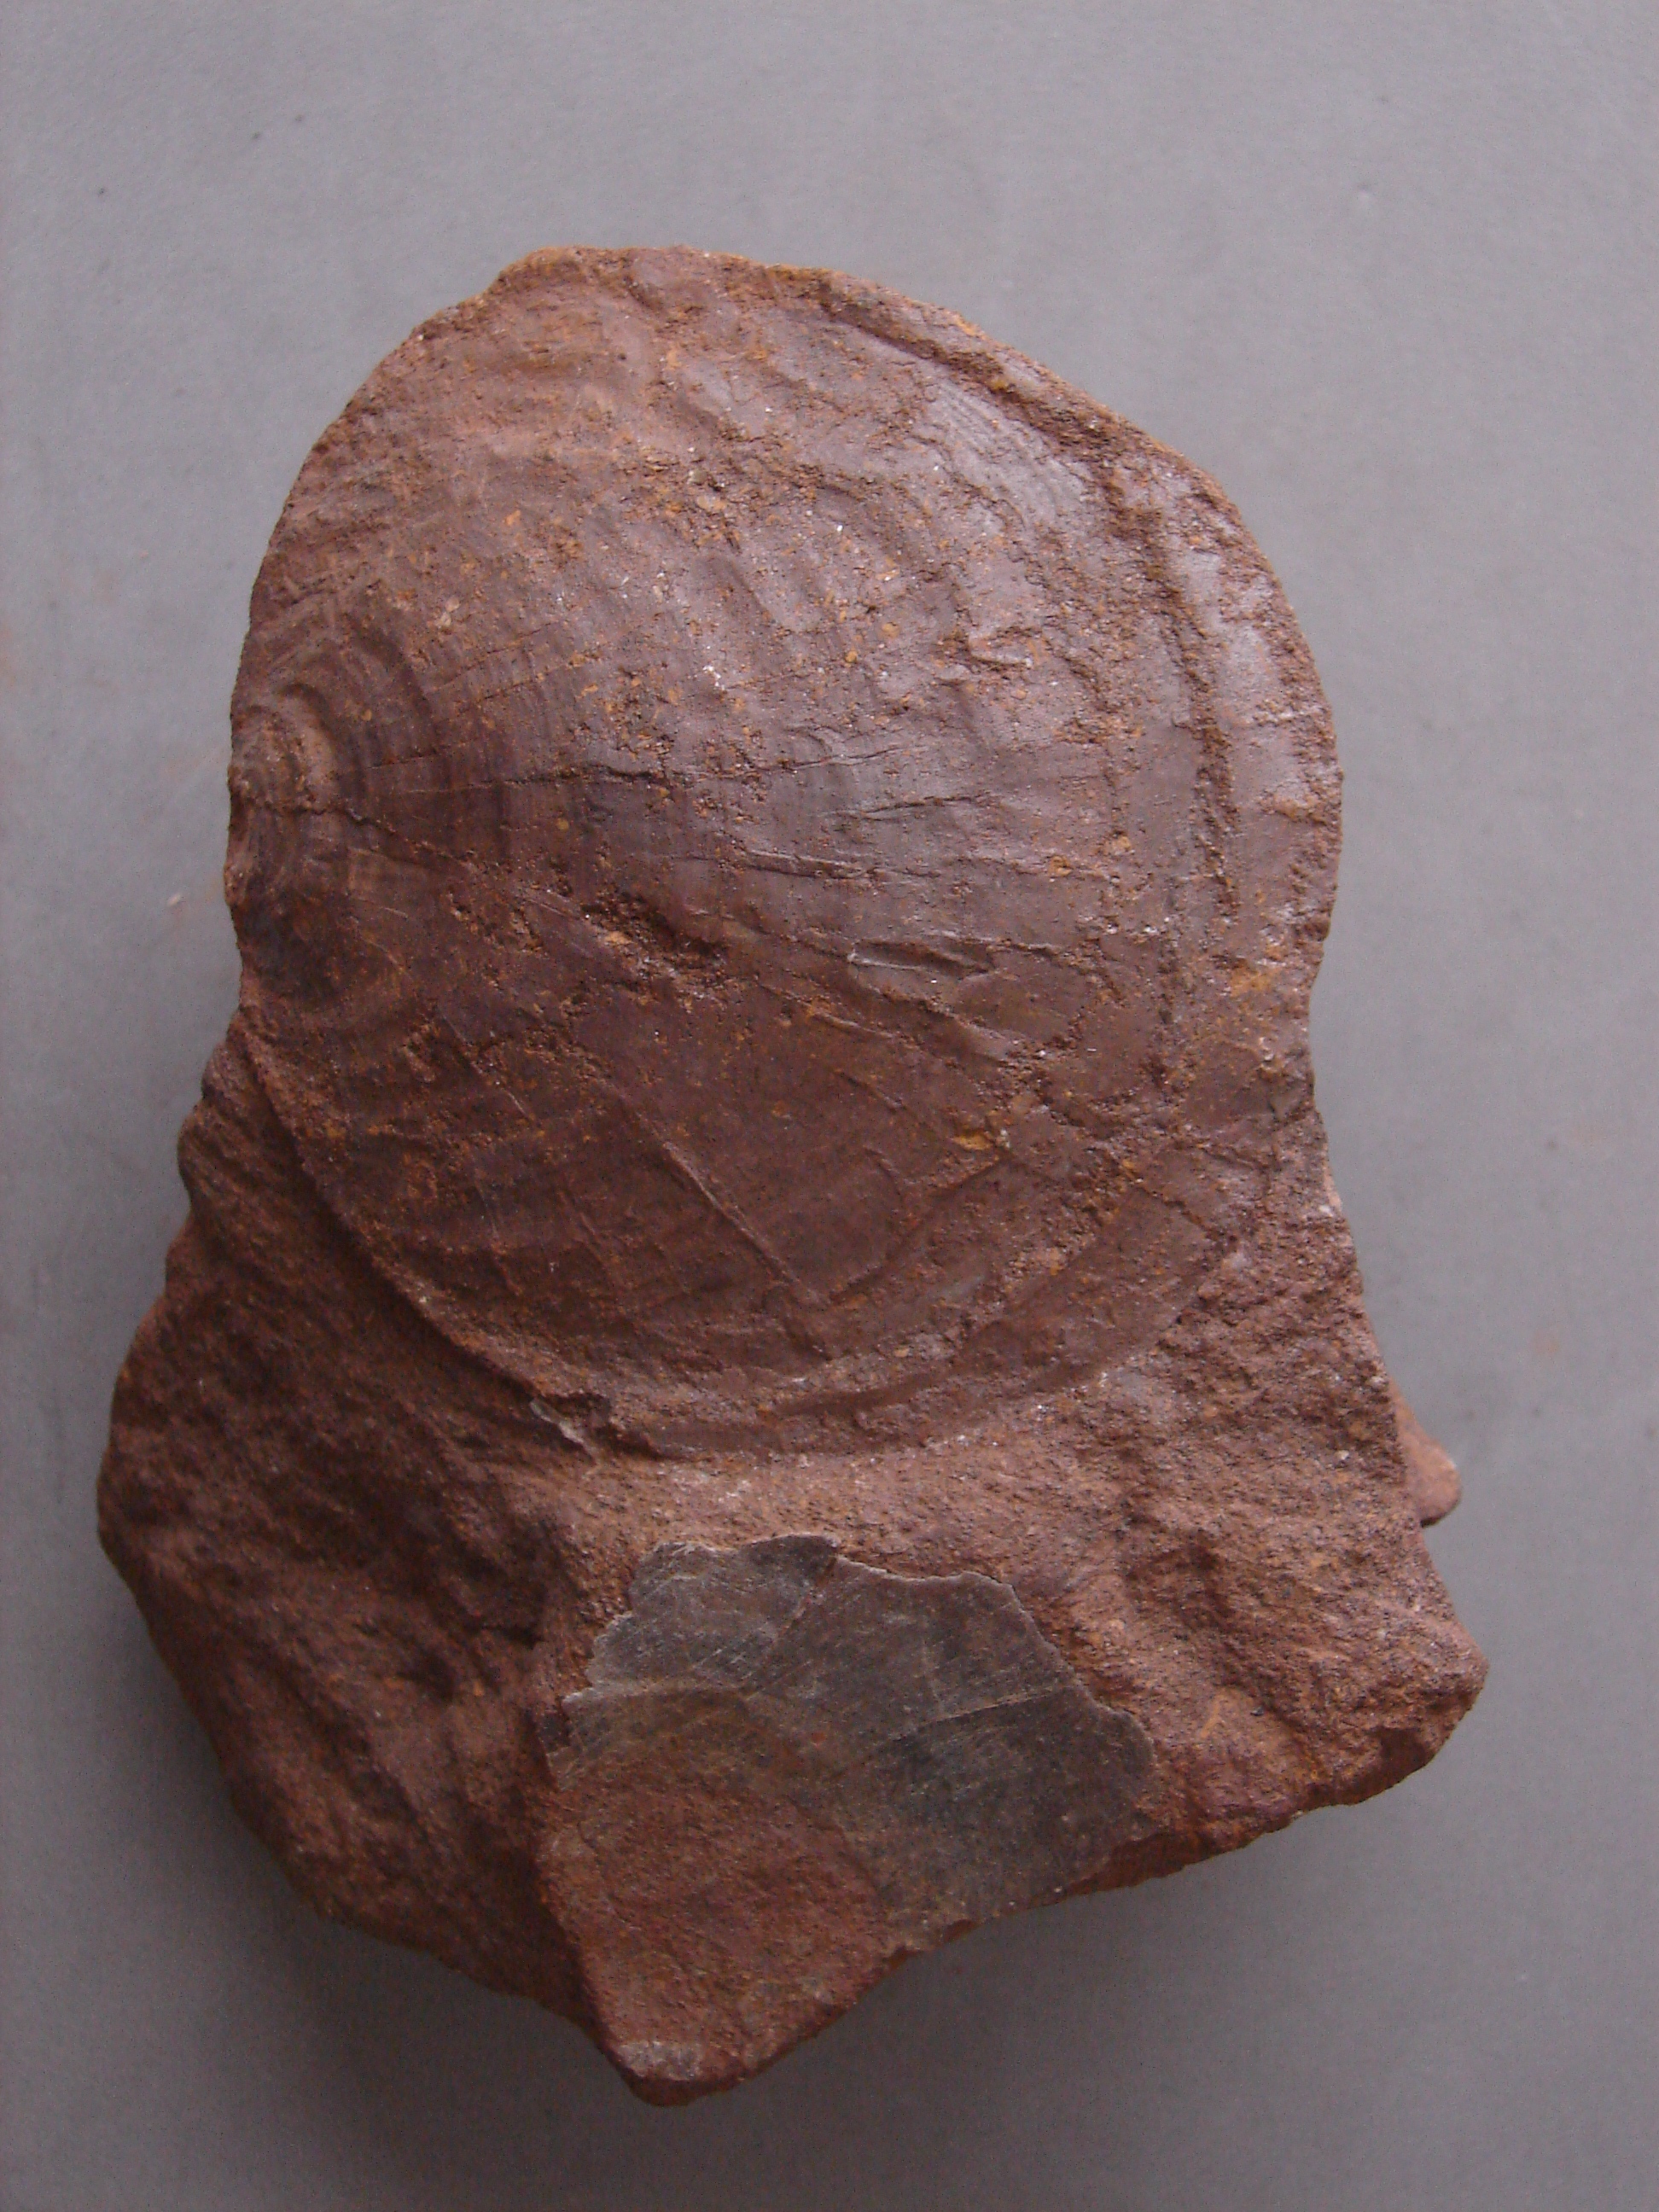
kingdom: Animalia
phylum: Mollusca
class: Bivalvia
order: Ostreida
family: Gryphaeidae
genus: Gryphaea
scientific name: Gryphaea
